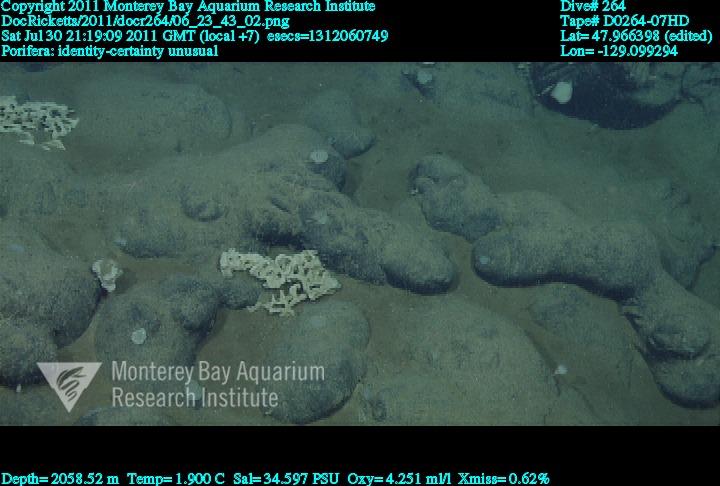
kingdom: Animalia
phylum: Porifera
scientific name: Porifera
